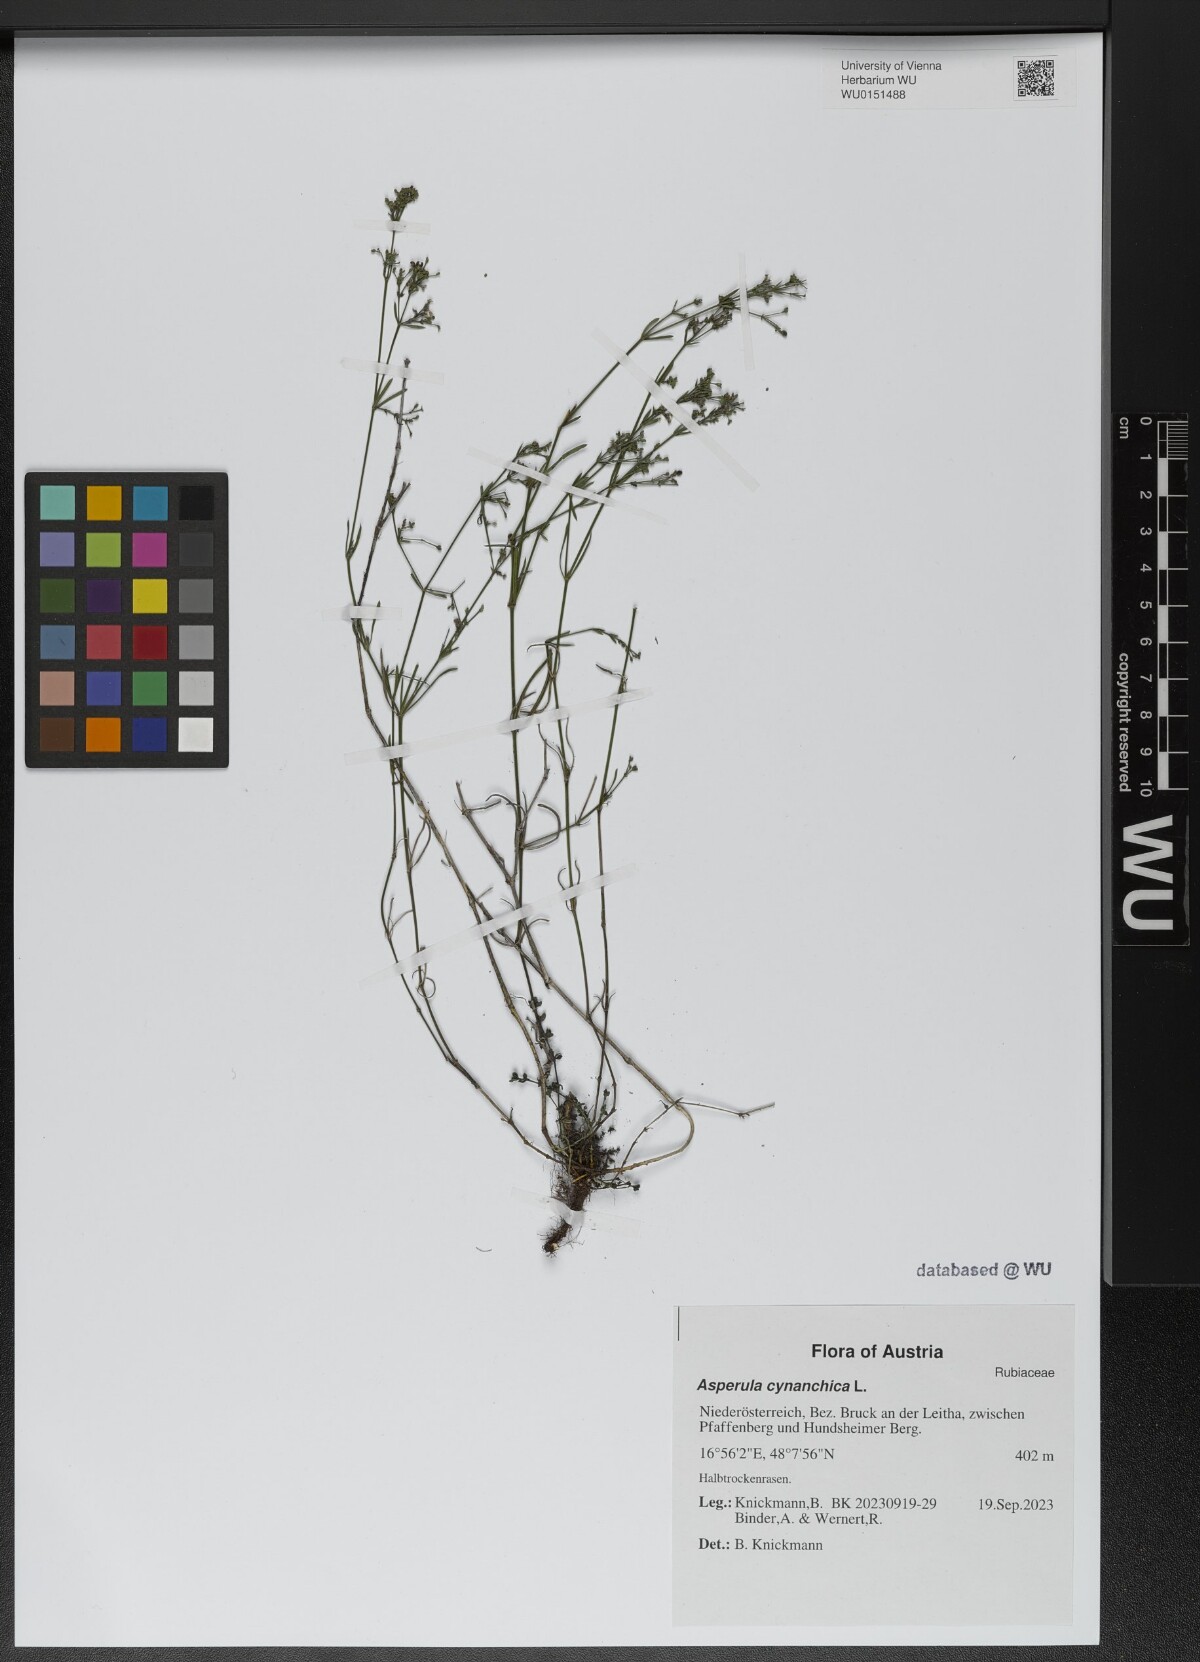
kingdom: Plantae
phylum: Tracheophyta
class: Magnoliopsida
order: Gentianales
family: Rubiaceae
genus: Cynanchica
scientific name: Cynanchica pyrenaica
